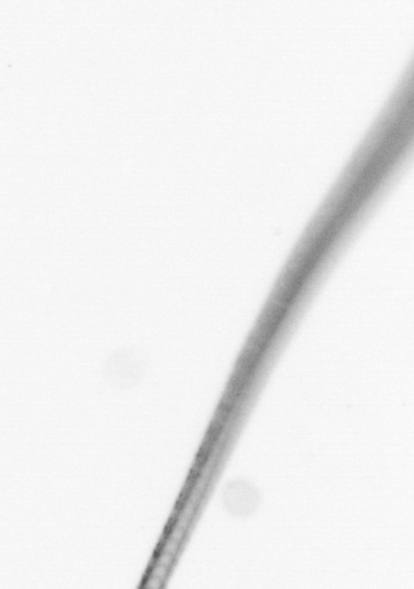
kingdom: Chromista
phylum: Ochrophyta
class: Bacillariophyceae
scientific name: Bacillariophyceae
